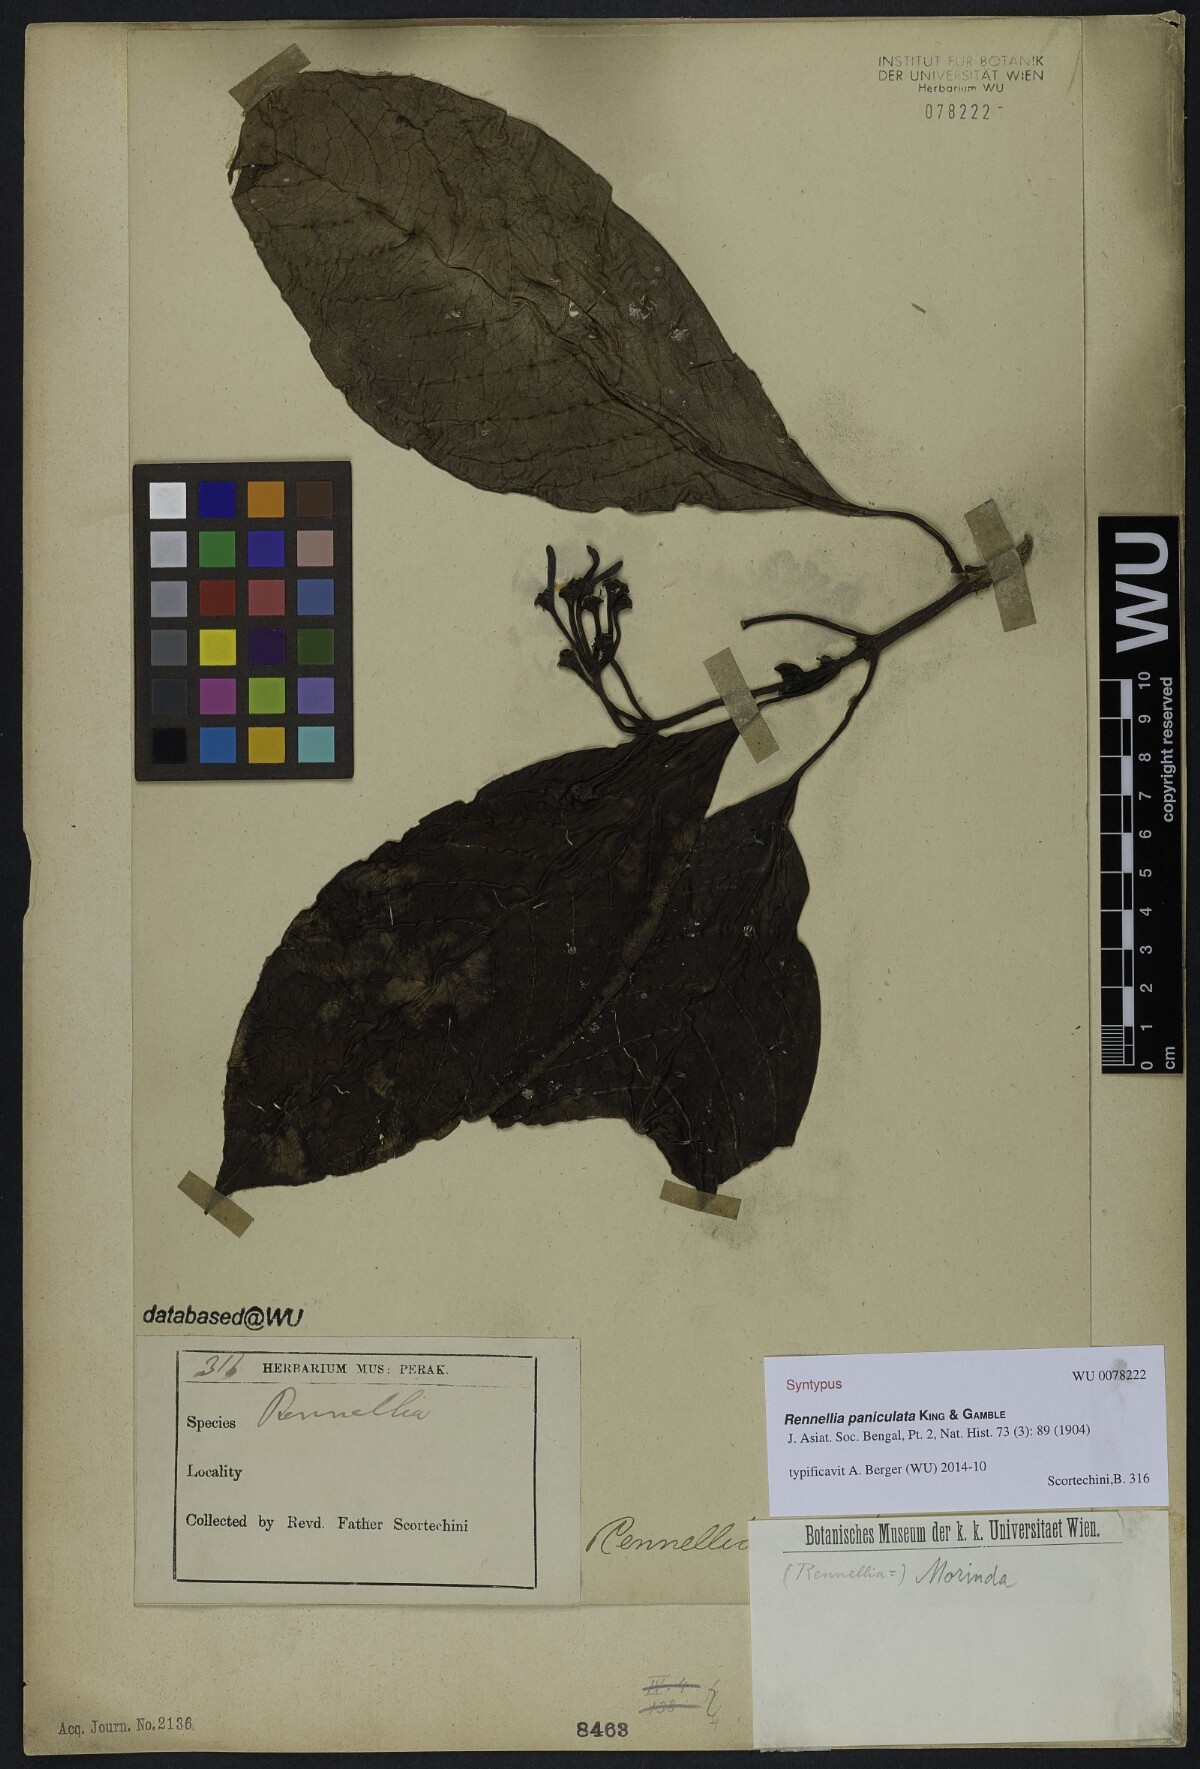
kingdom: Plantae
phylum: Tracheophyta
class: Magnoliopsida
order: Gentianales
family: Rubiaceae
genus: Rennellia
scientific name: Rennellia paniculata
